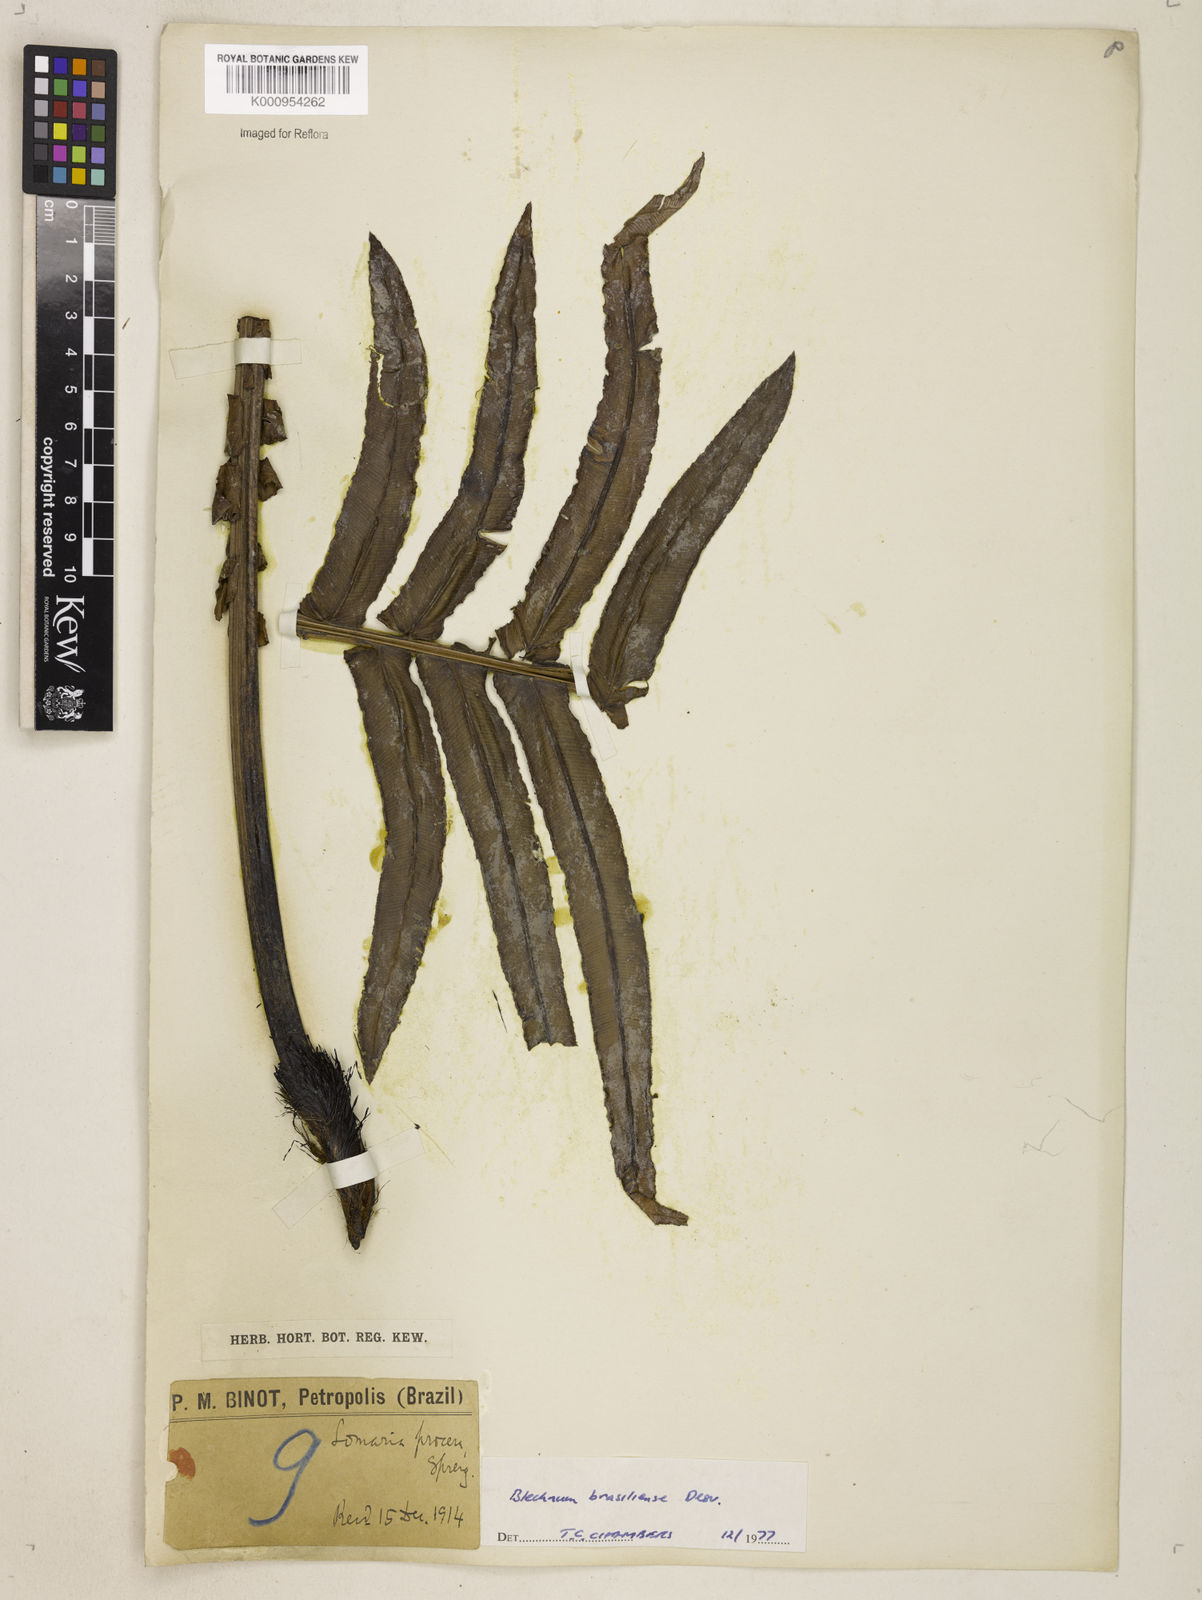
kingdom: Plantae
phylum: Tracheophyta
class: Polypodiopsida
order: Polypodiales
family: Blechnaceae
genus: Neoblechnum
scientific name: Neoblechnum brasiliense
